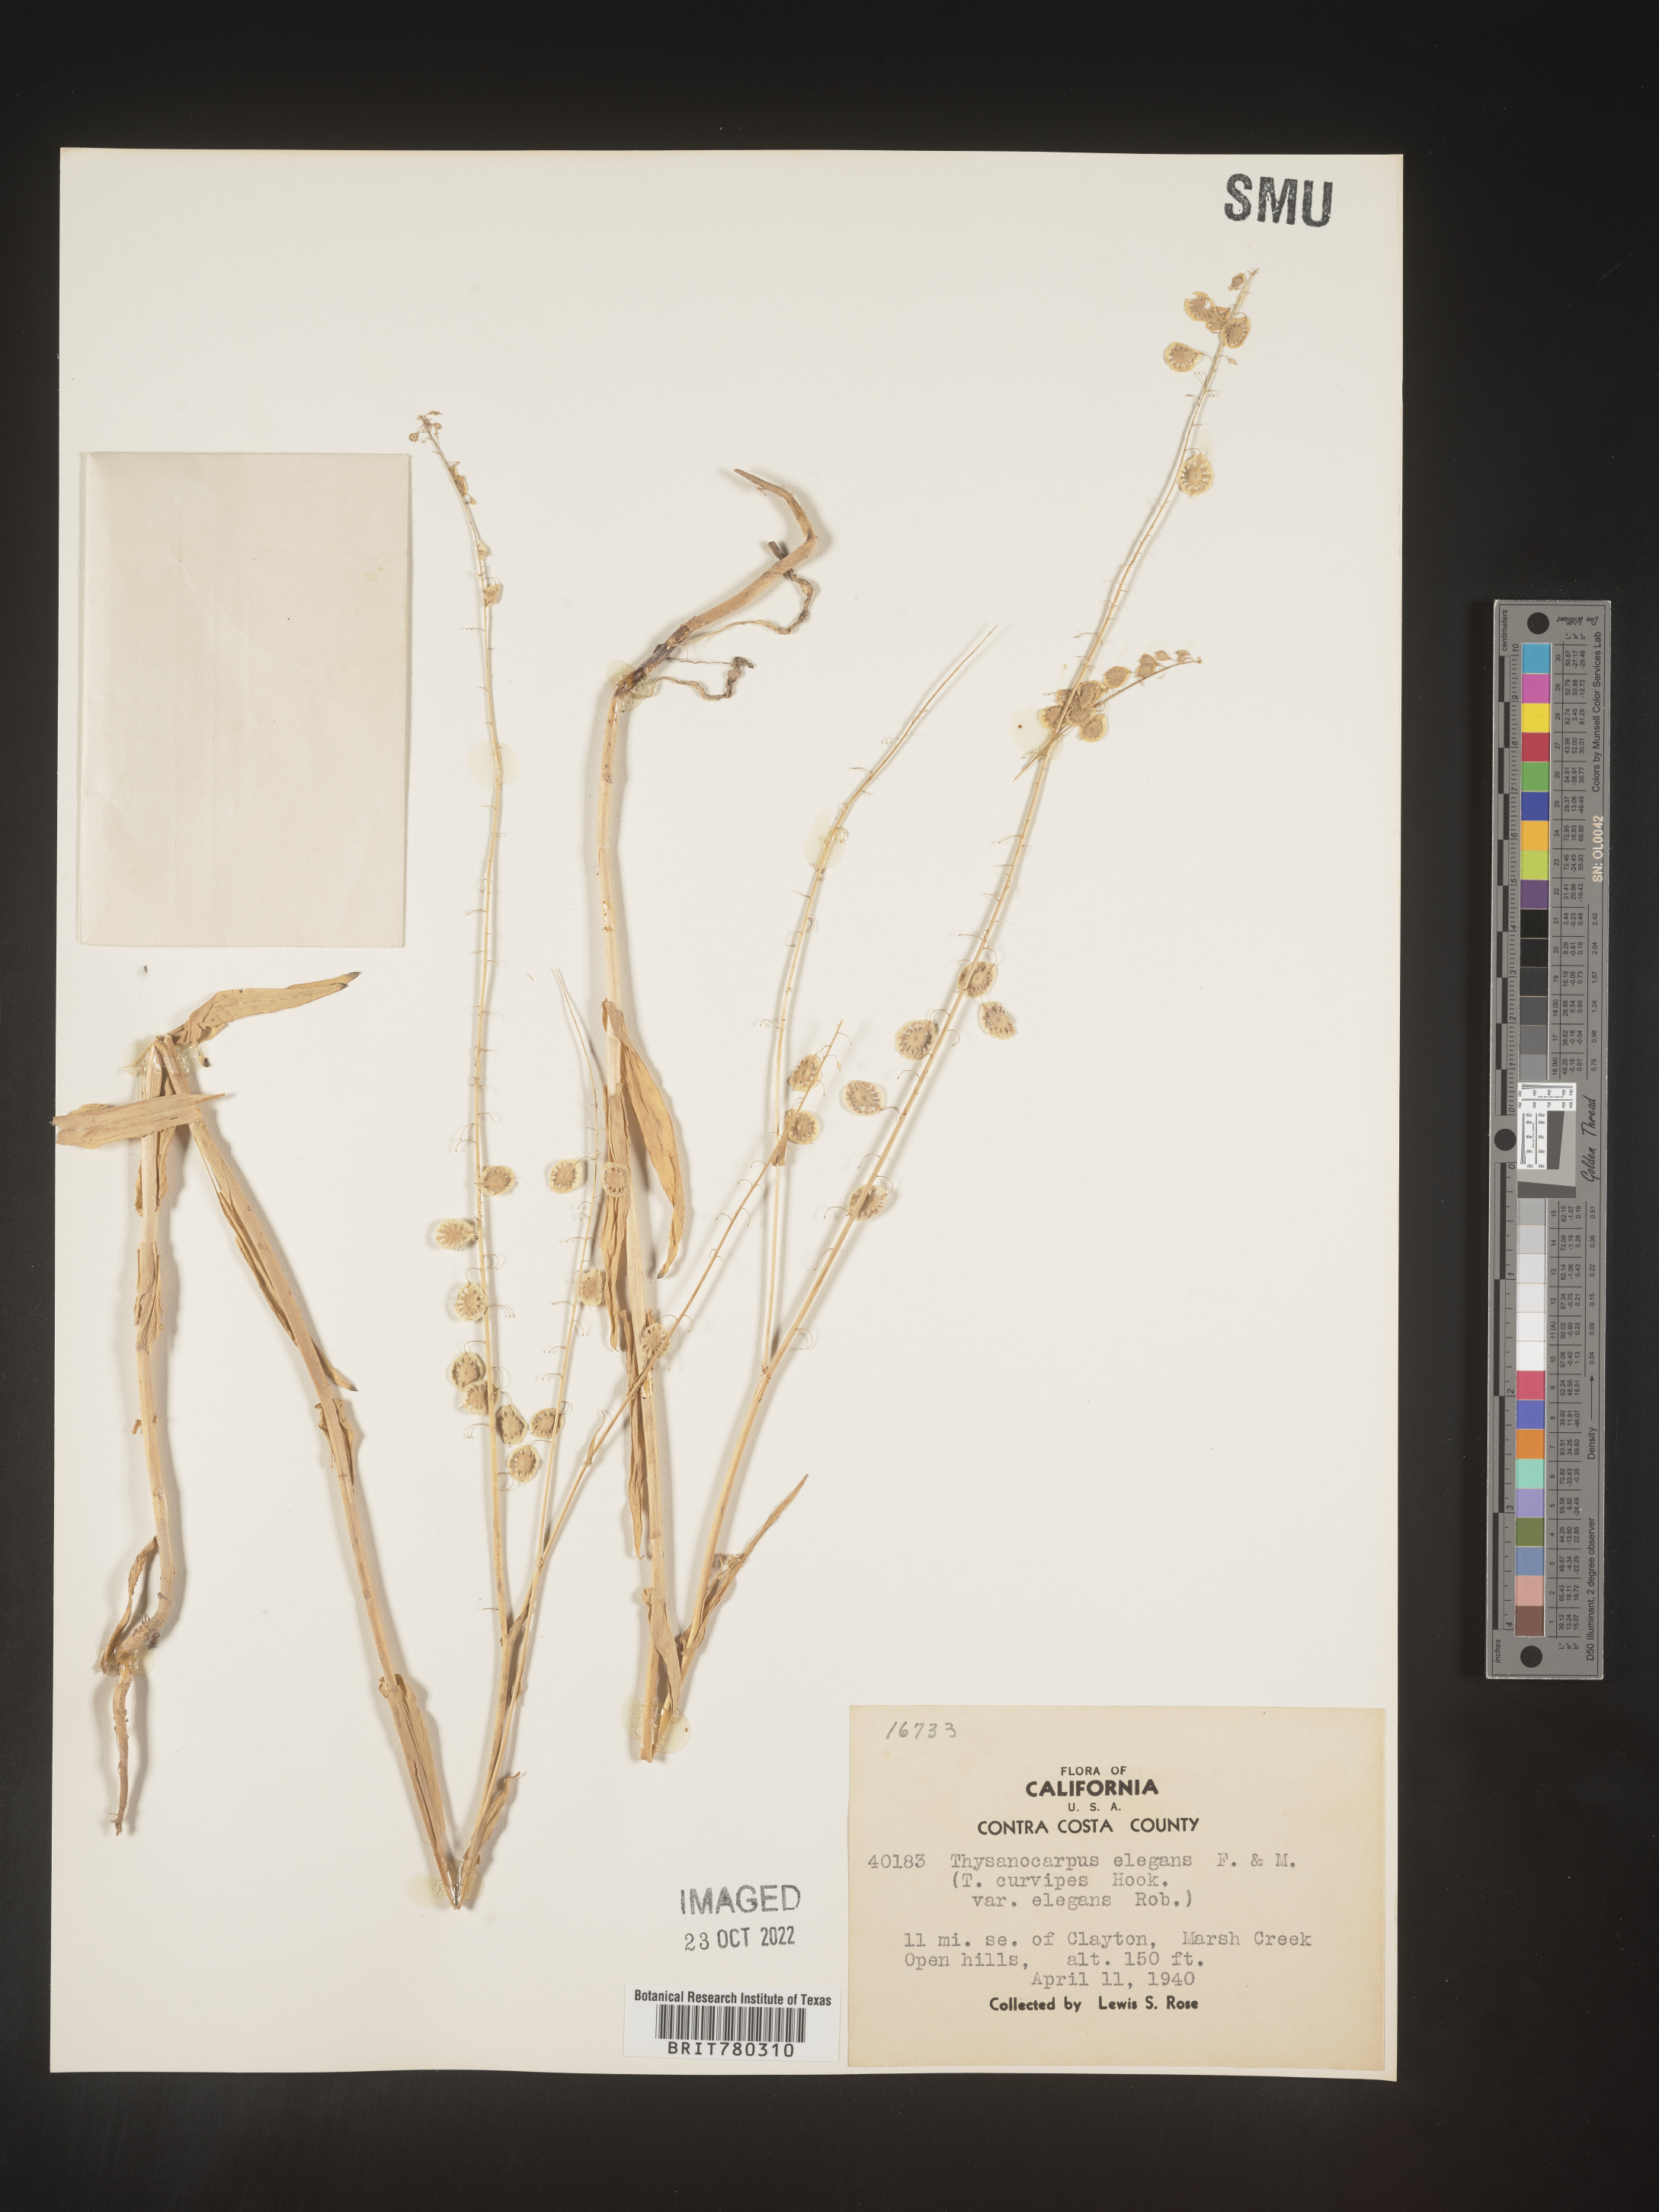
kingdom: Plantae
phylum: Tracheophyta
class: Magnoliopsida
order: Brassicales
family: Brassicaceae
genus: Thysanocarpus
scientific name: Thysanocarpus
